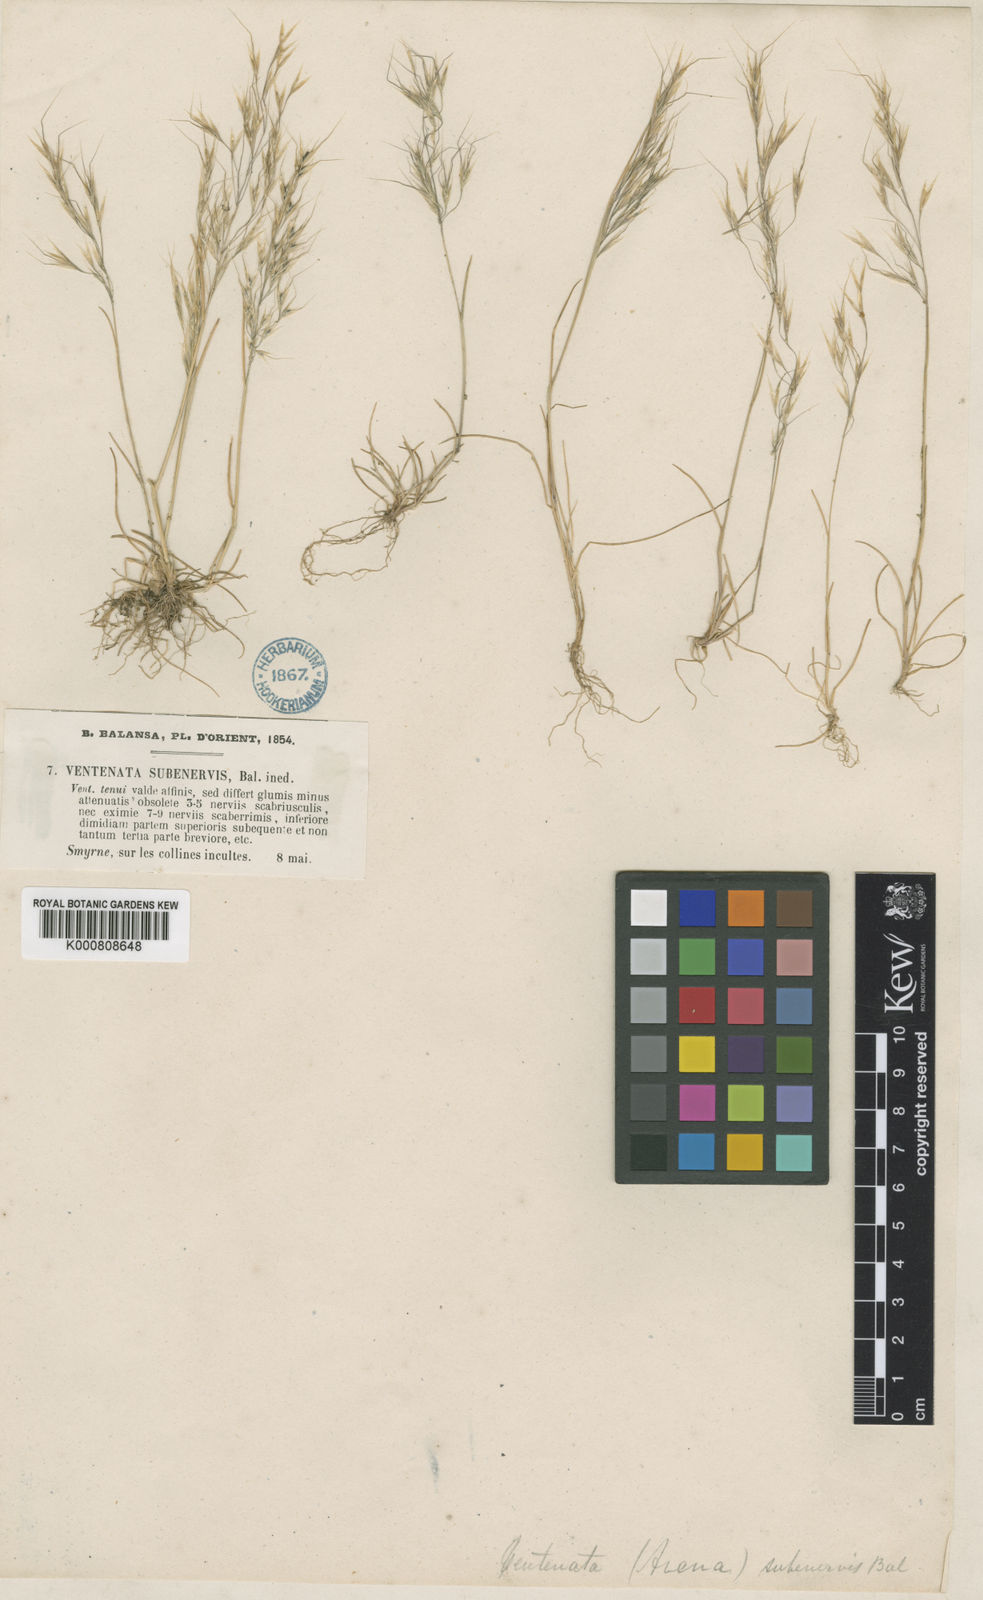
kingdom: Plantae
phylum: Tracheophyta
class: Liliopsida
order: Poales
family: Poaceae
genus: Ventenata
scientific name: Ventenata subenervis
